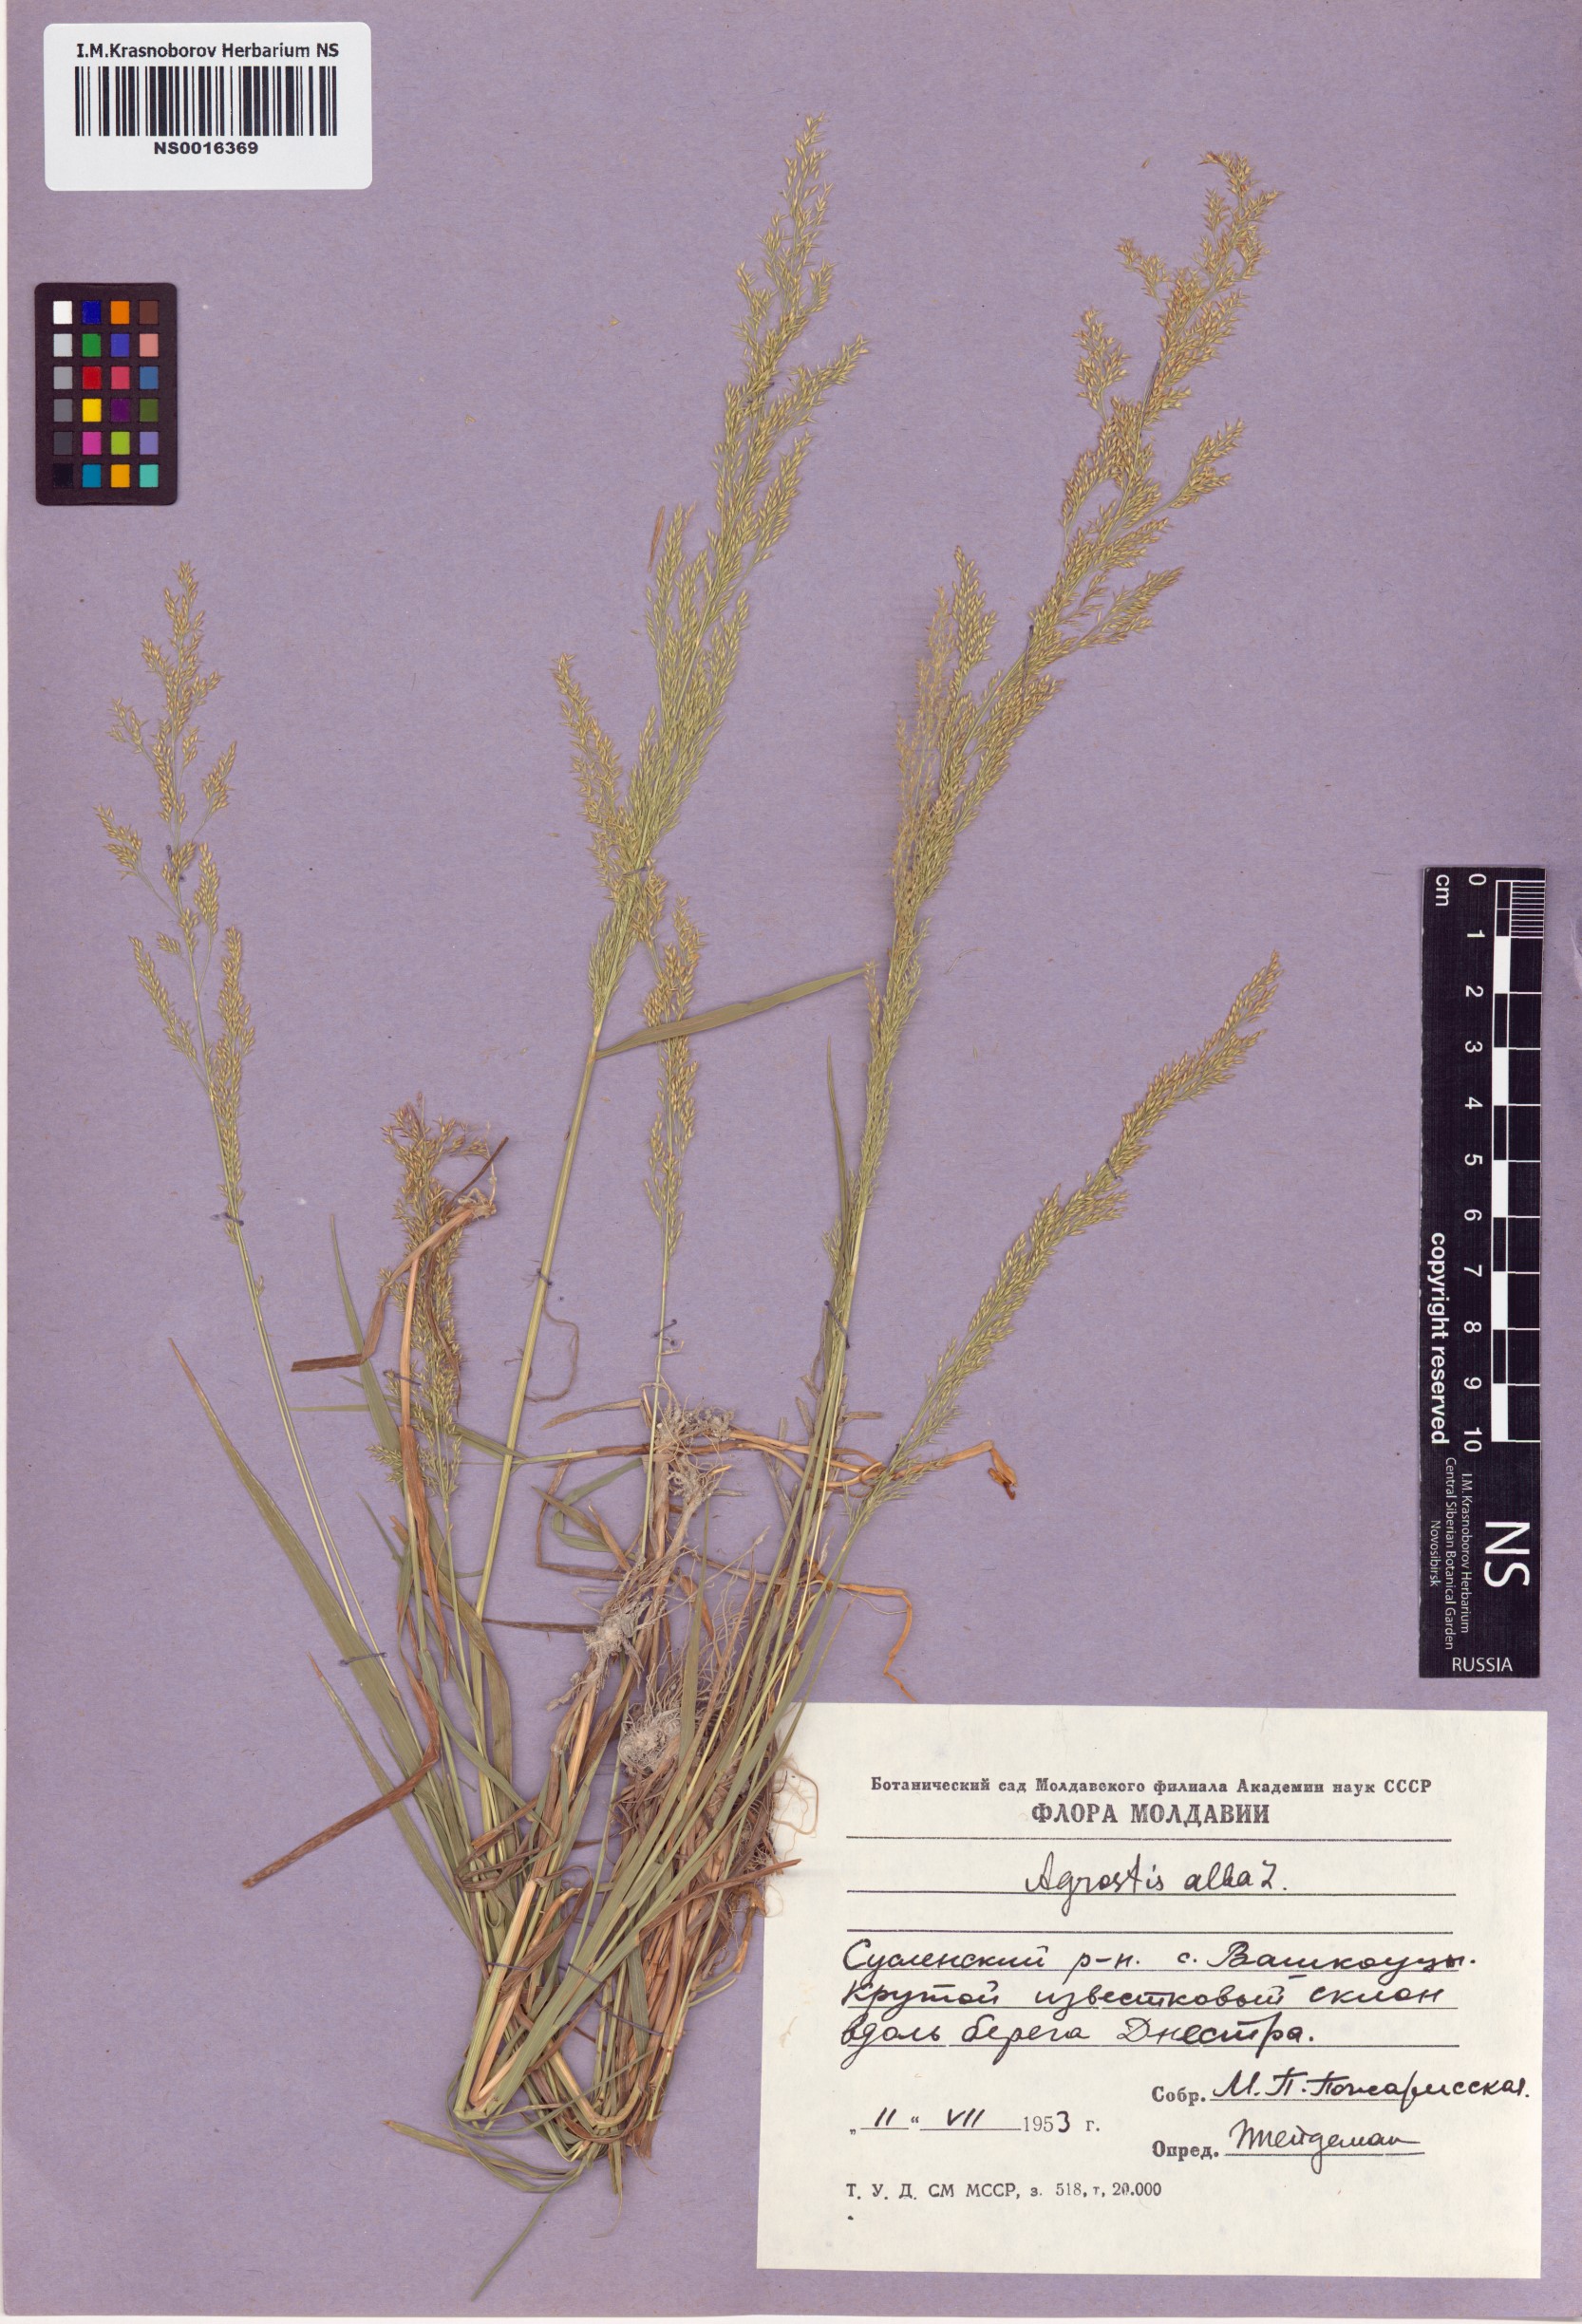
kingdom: Plantae
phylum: Tracheophyta
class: Liliopsida
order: Poales
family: Poaceae
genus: Poa
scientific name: Poa nemoralis
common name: Wood bluegrass
